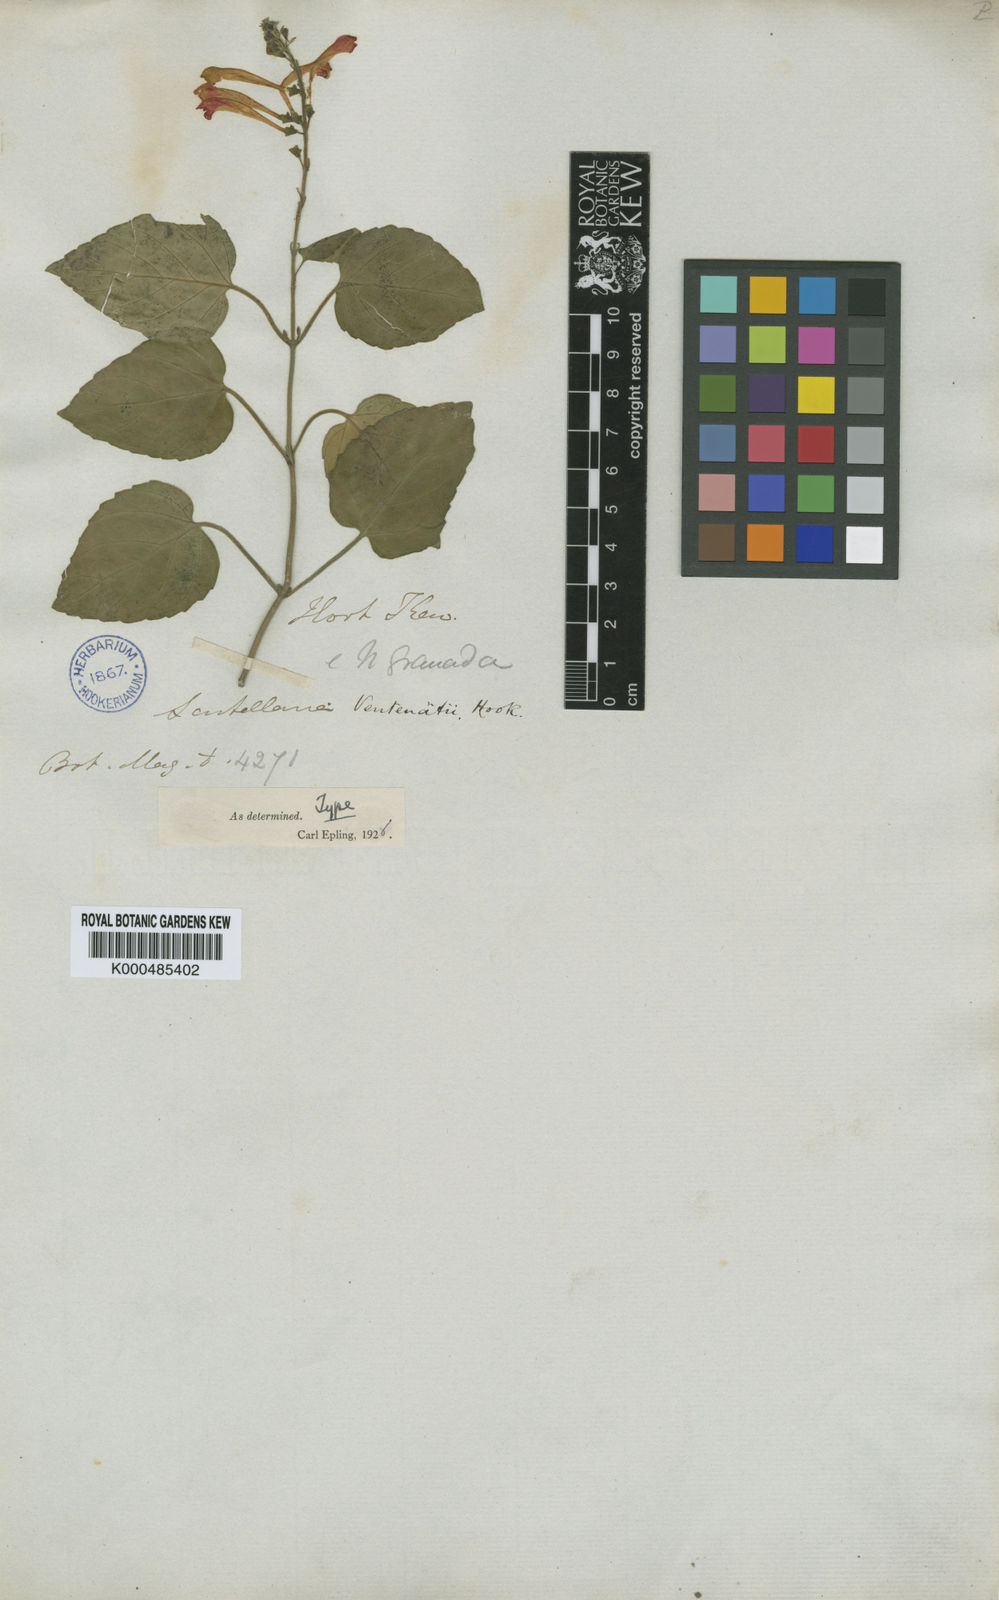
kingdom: Plantae
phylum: Tracheophyta
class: Magnoliopsida
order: Lamiales
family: Lamiaceae
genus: Scutellaria
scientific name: Scutellaria incarnata
